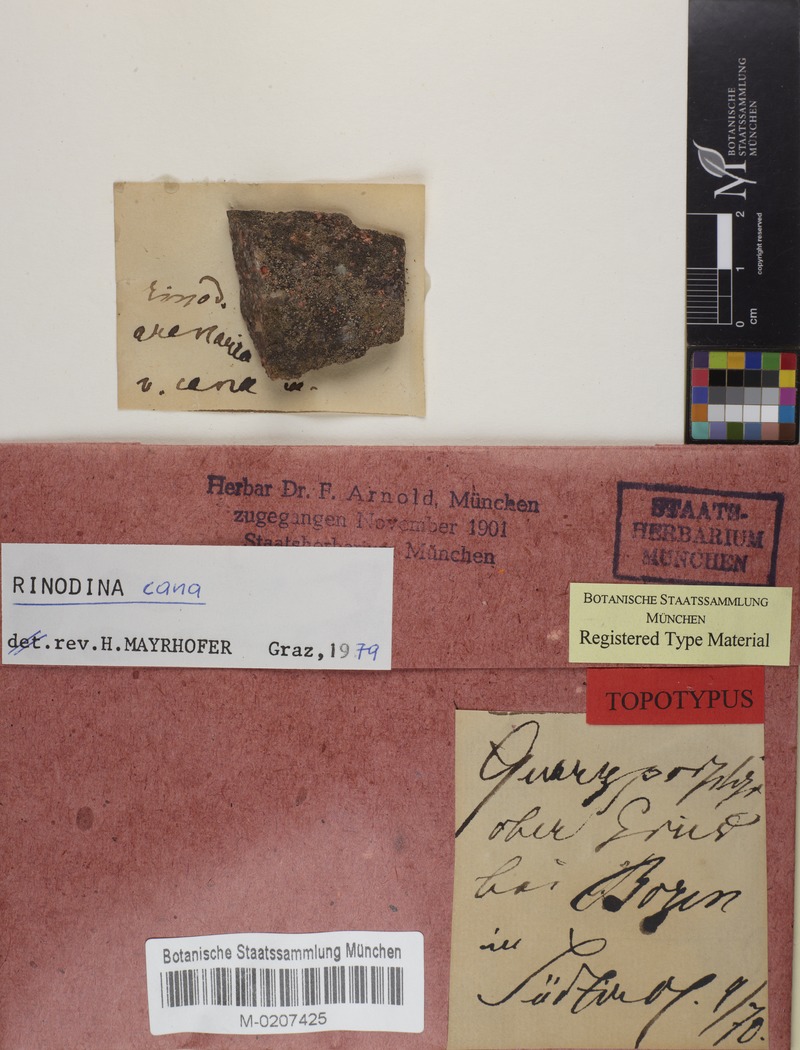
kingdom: Fungi
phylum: Ascomycota
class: Lecanoromycetes
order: Caliciales
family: Physciaceae
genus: Rinodina
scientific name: Rinodina cana
